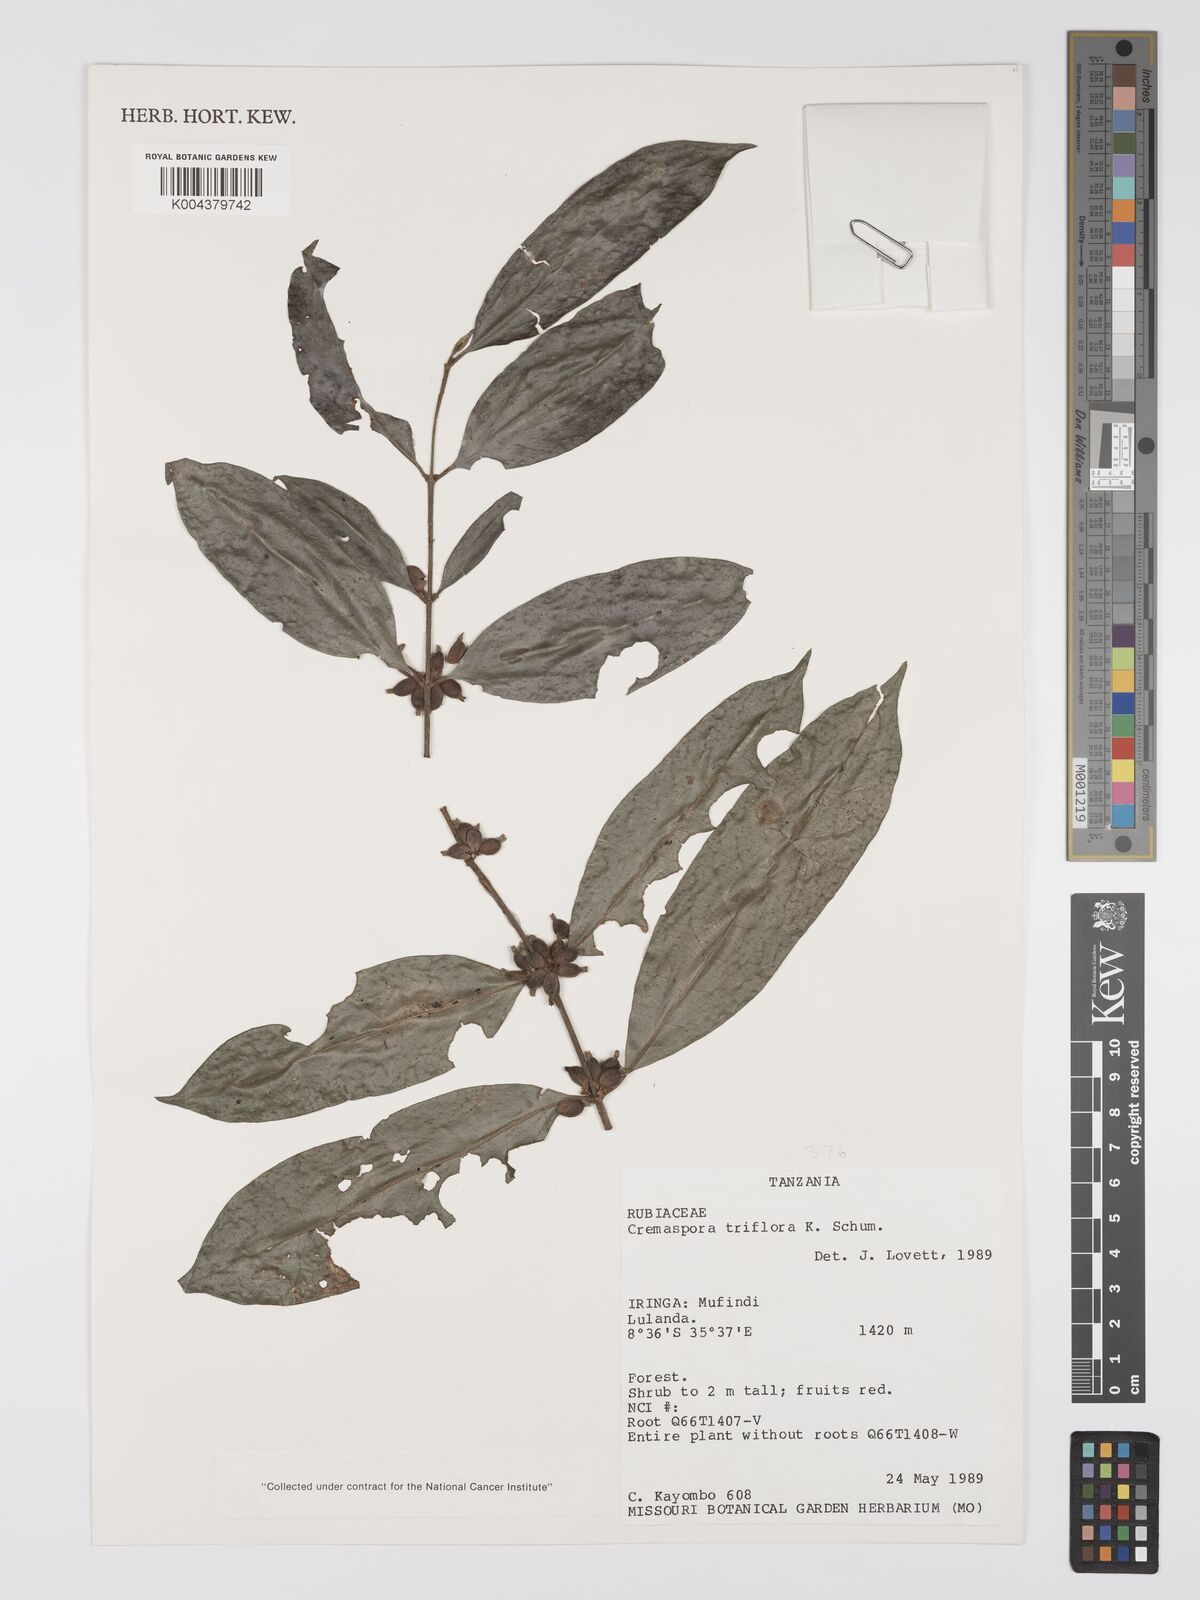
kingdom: Plantae
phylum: Tracheophyta
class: Magnoliopsida
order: Gentianales
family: Rubiaceae
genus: Cremaspora
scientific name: Cremaspora triflora
